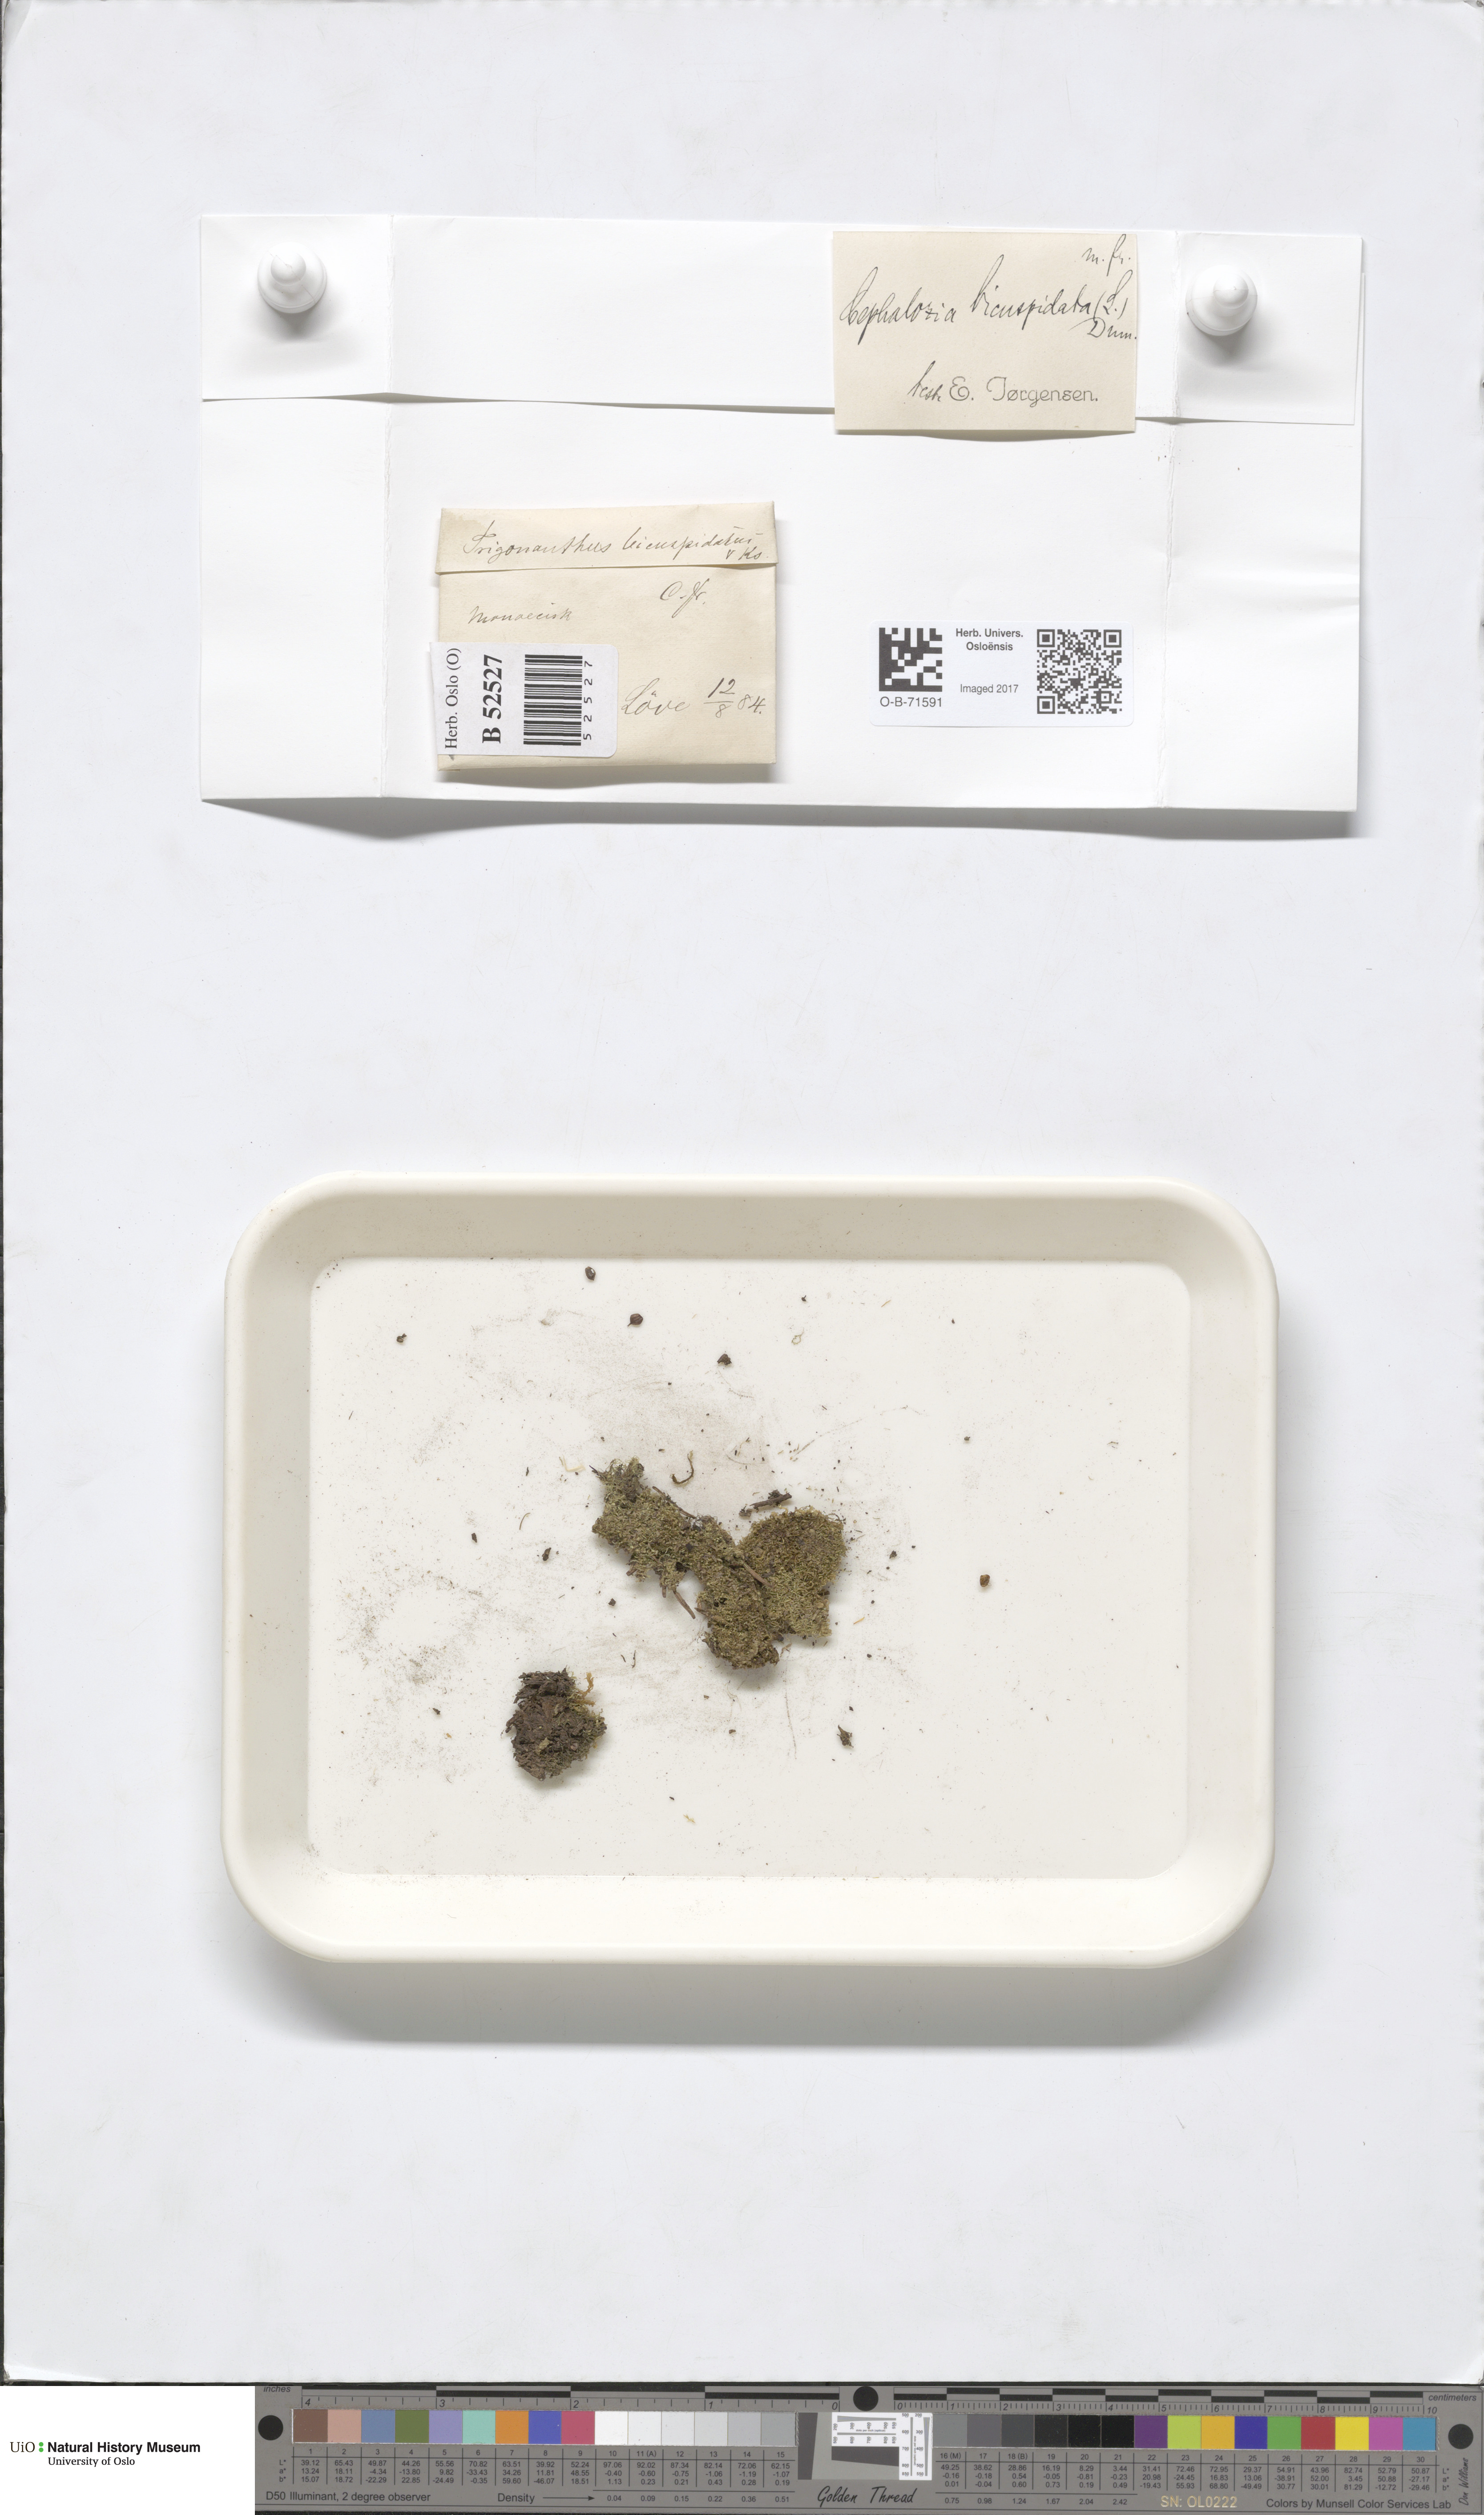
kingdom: Plantae
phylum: Marchantiophyta
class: Jungermanniopsida
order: Jungermanniales
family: Cephaloziaceae
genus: Cephalozia
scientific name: Cephalozia bicuspidata
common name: Two-horned pincerwort
